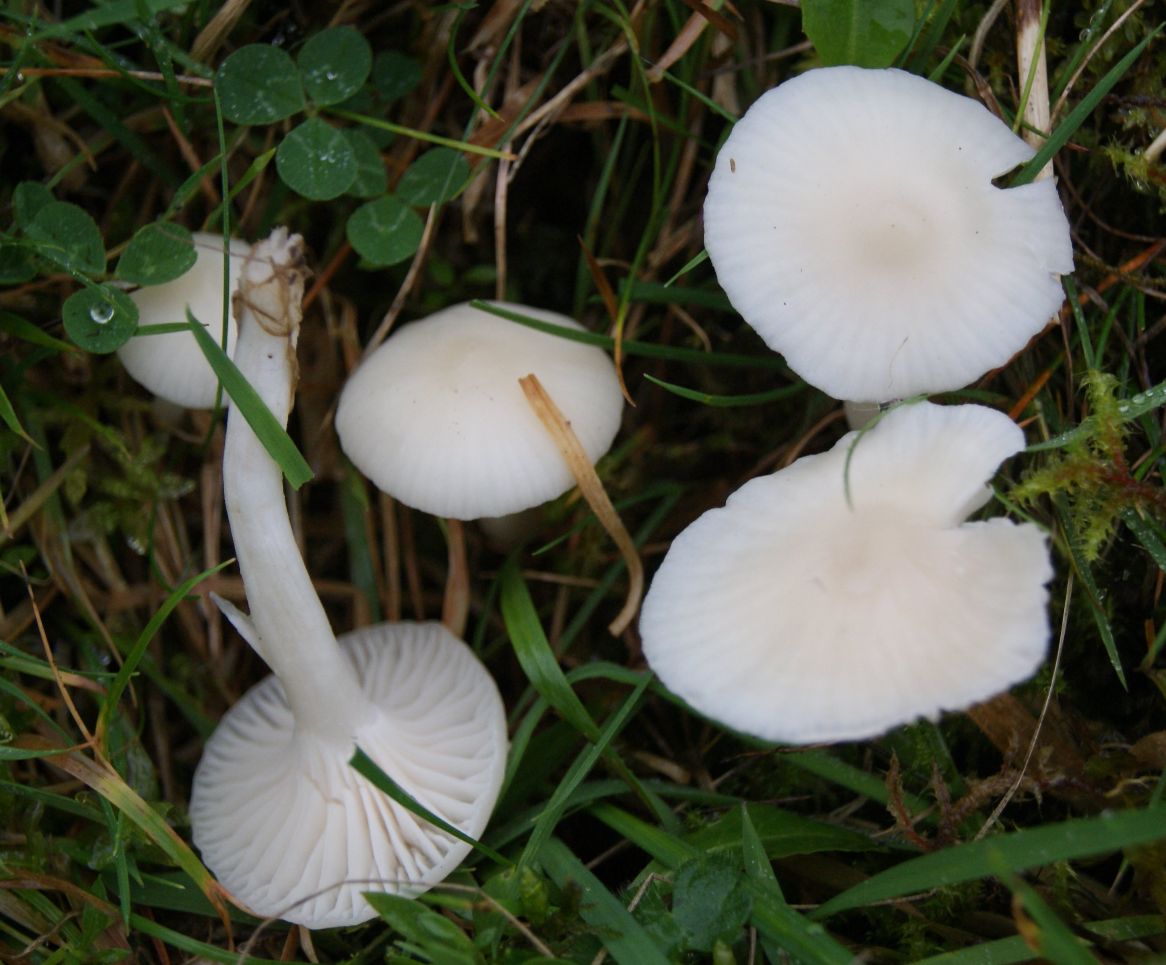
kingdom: Fungi
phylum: Basidiomycota
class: Agaricomycetes
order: Agaricales
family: Hygrophoraceae
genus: Cuphophyllus
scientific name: Cuphophyllus virgineus
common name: snehvid vokshat
